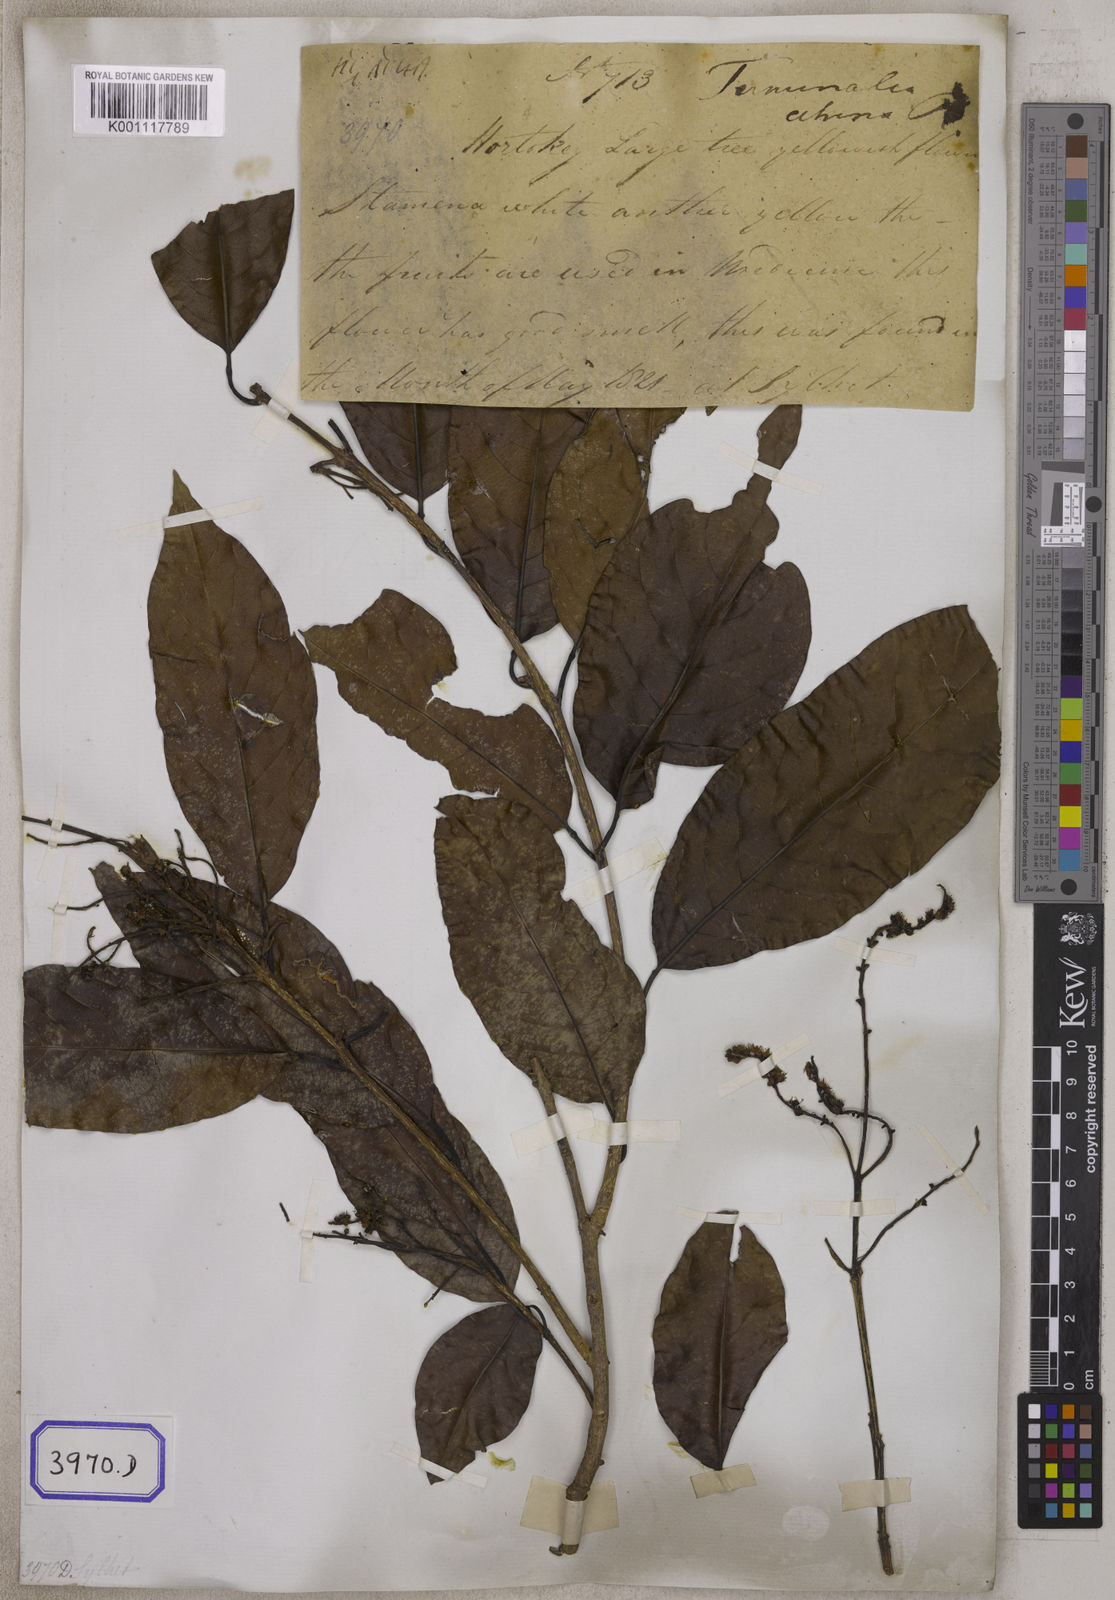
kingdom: Plantae
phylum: Tracheophyta
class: Magnoliopsida
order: Myrtales
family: Combretaceae
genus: Terminalia
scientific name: Terminalia citrina
